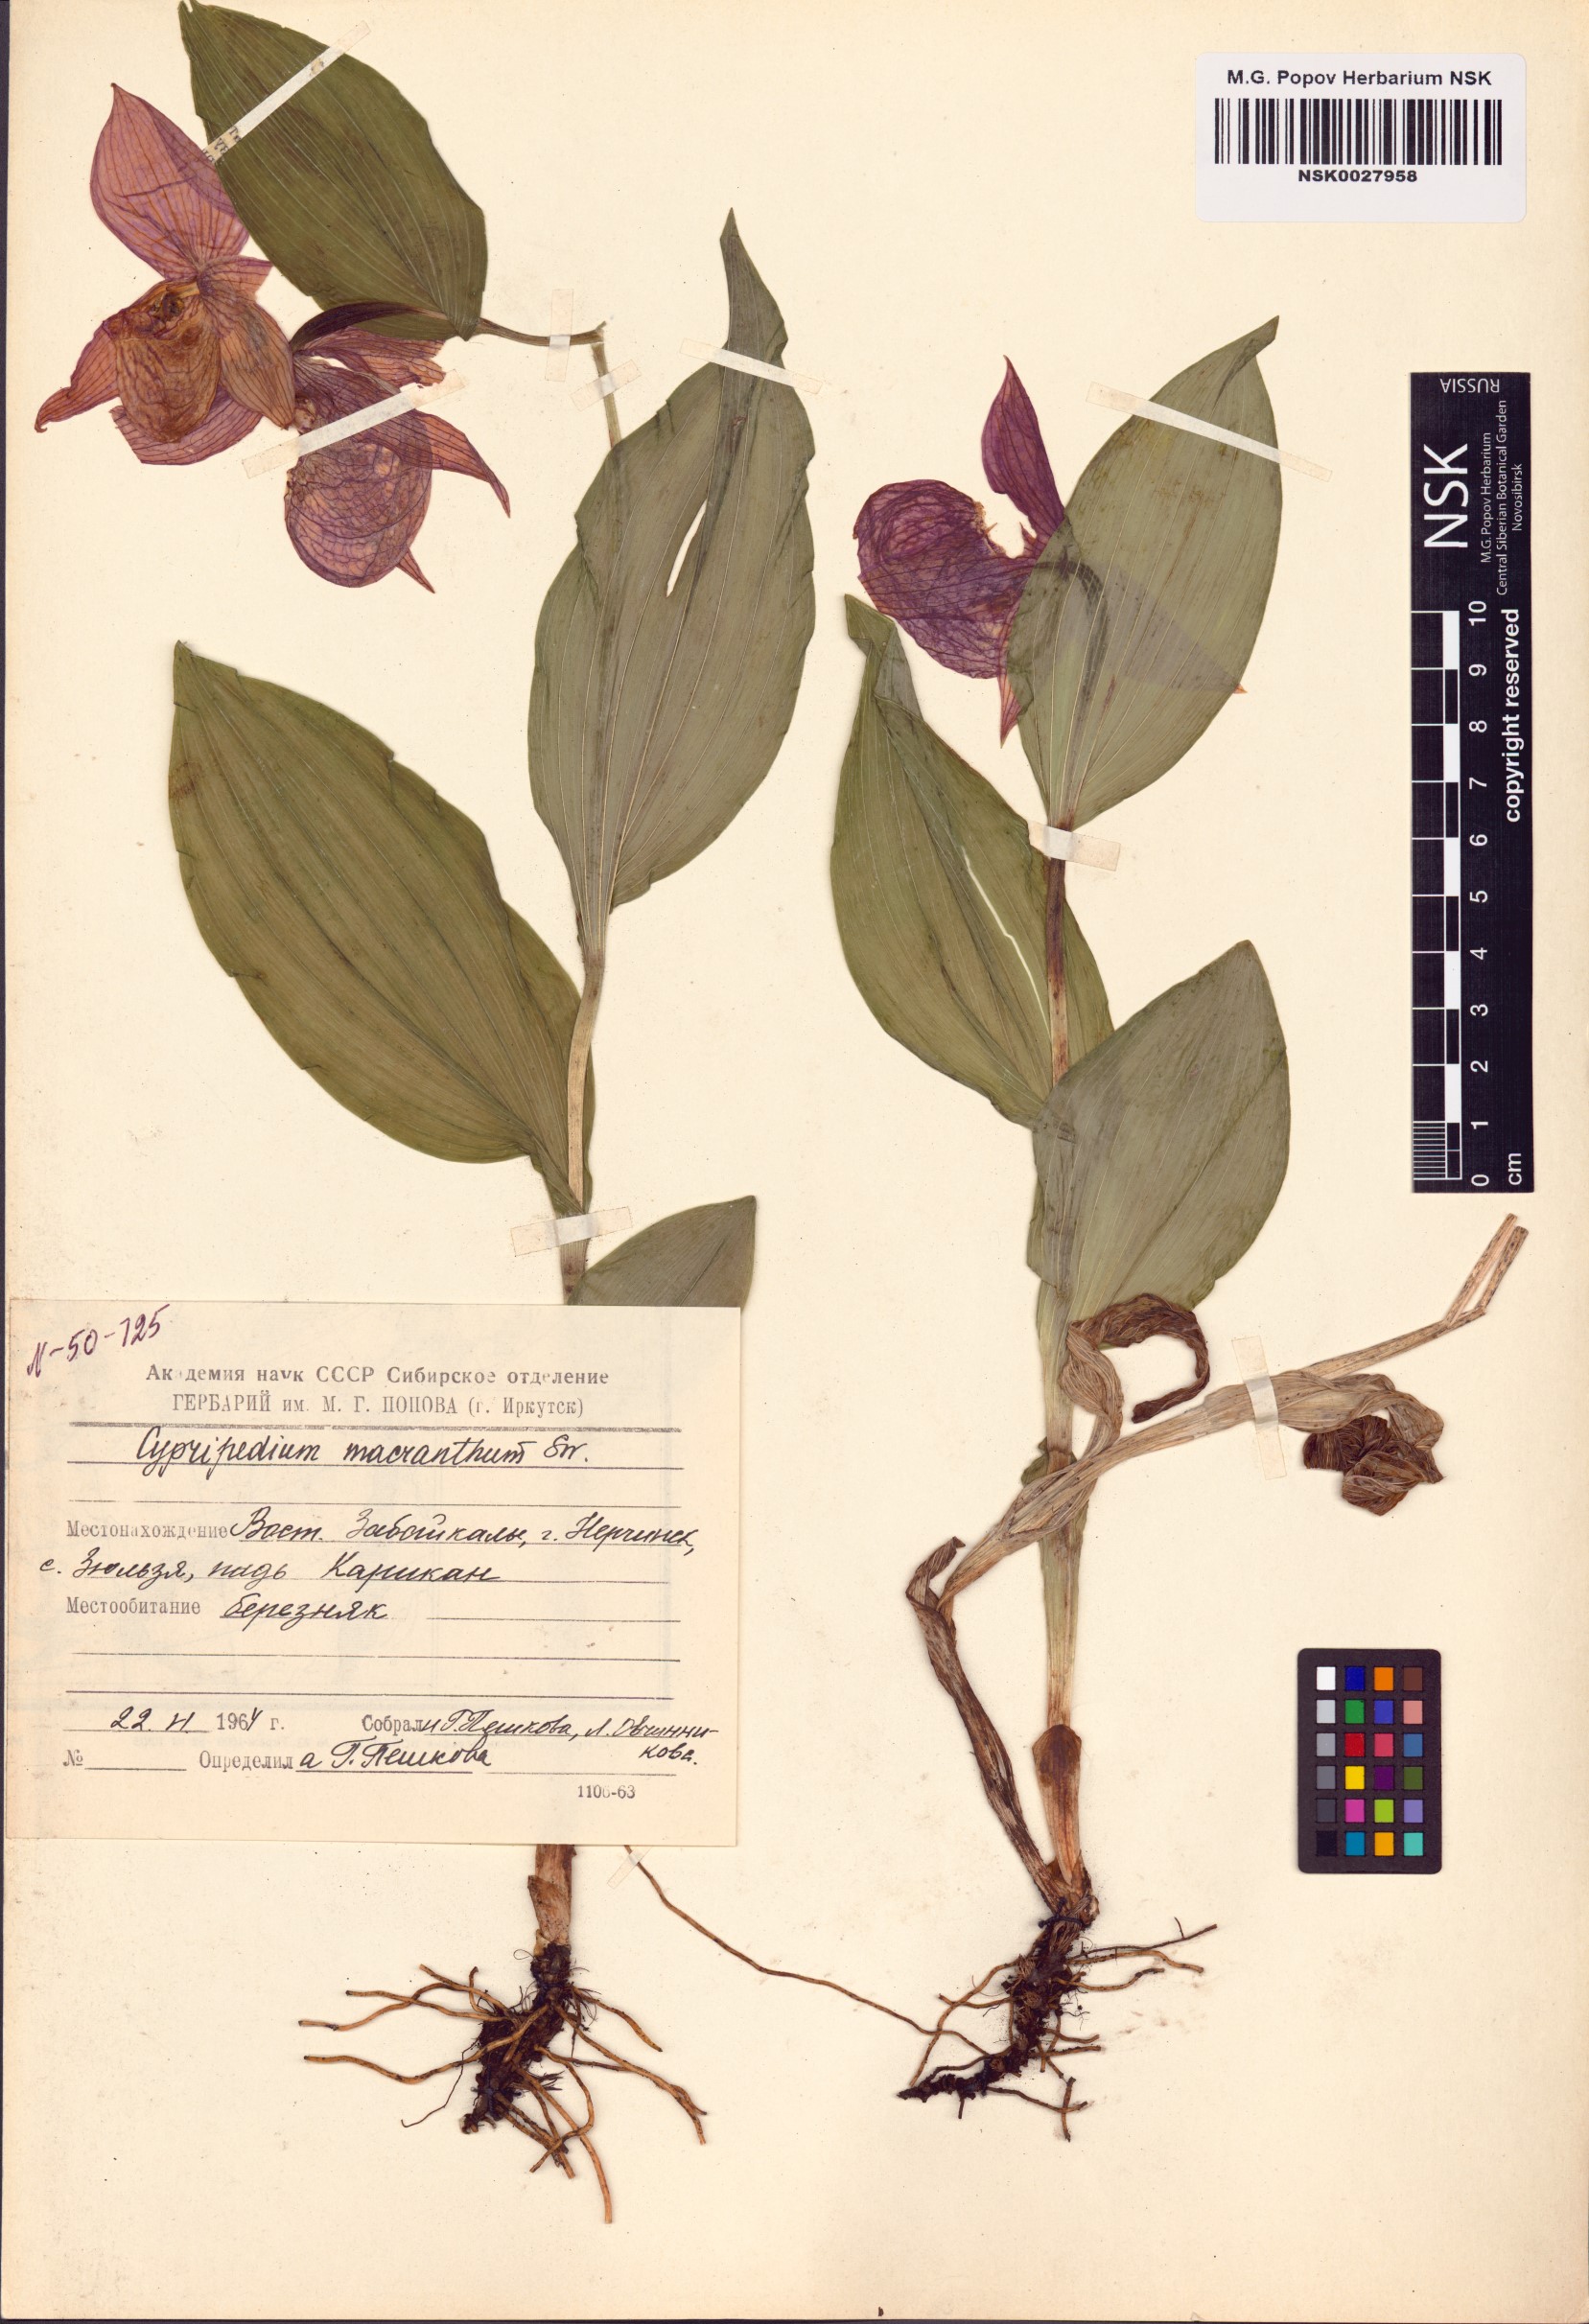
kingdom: Plantae
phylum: Tracheophyta
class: Liliopsida
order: Asparagales
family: Orchidaceae
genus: Cypripedium
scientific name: Cypripedium macranthos
